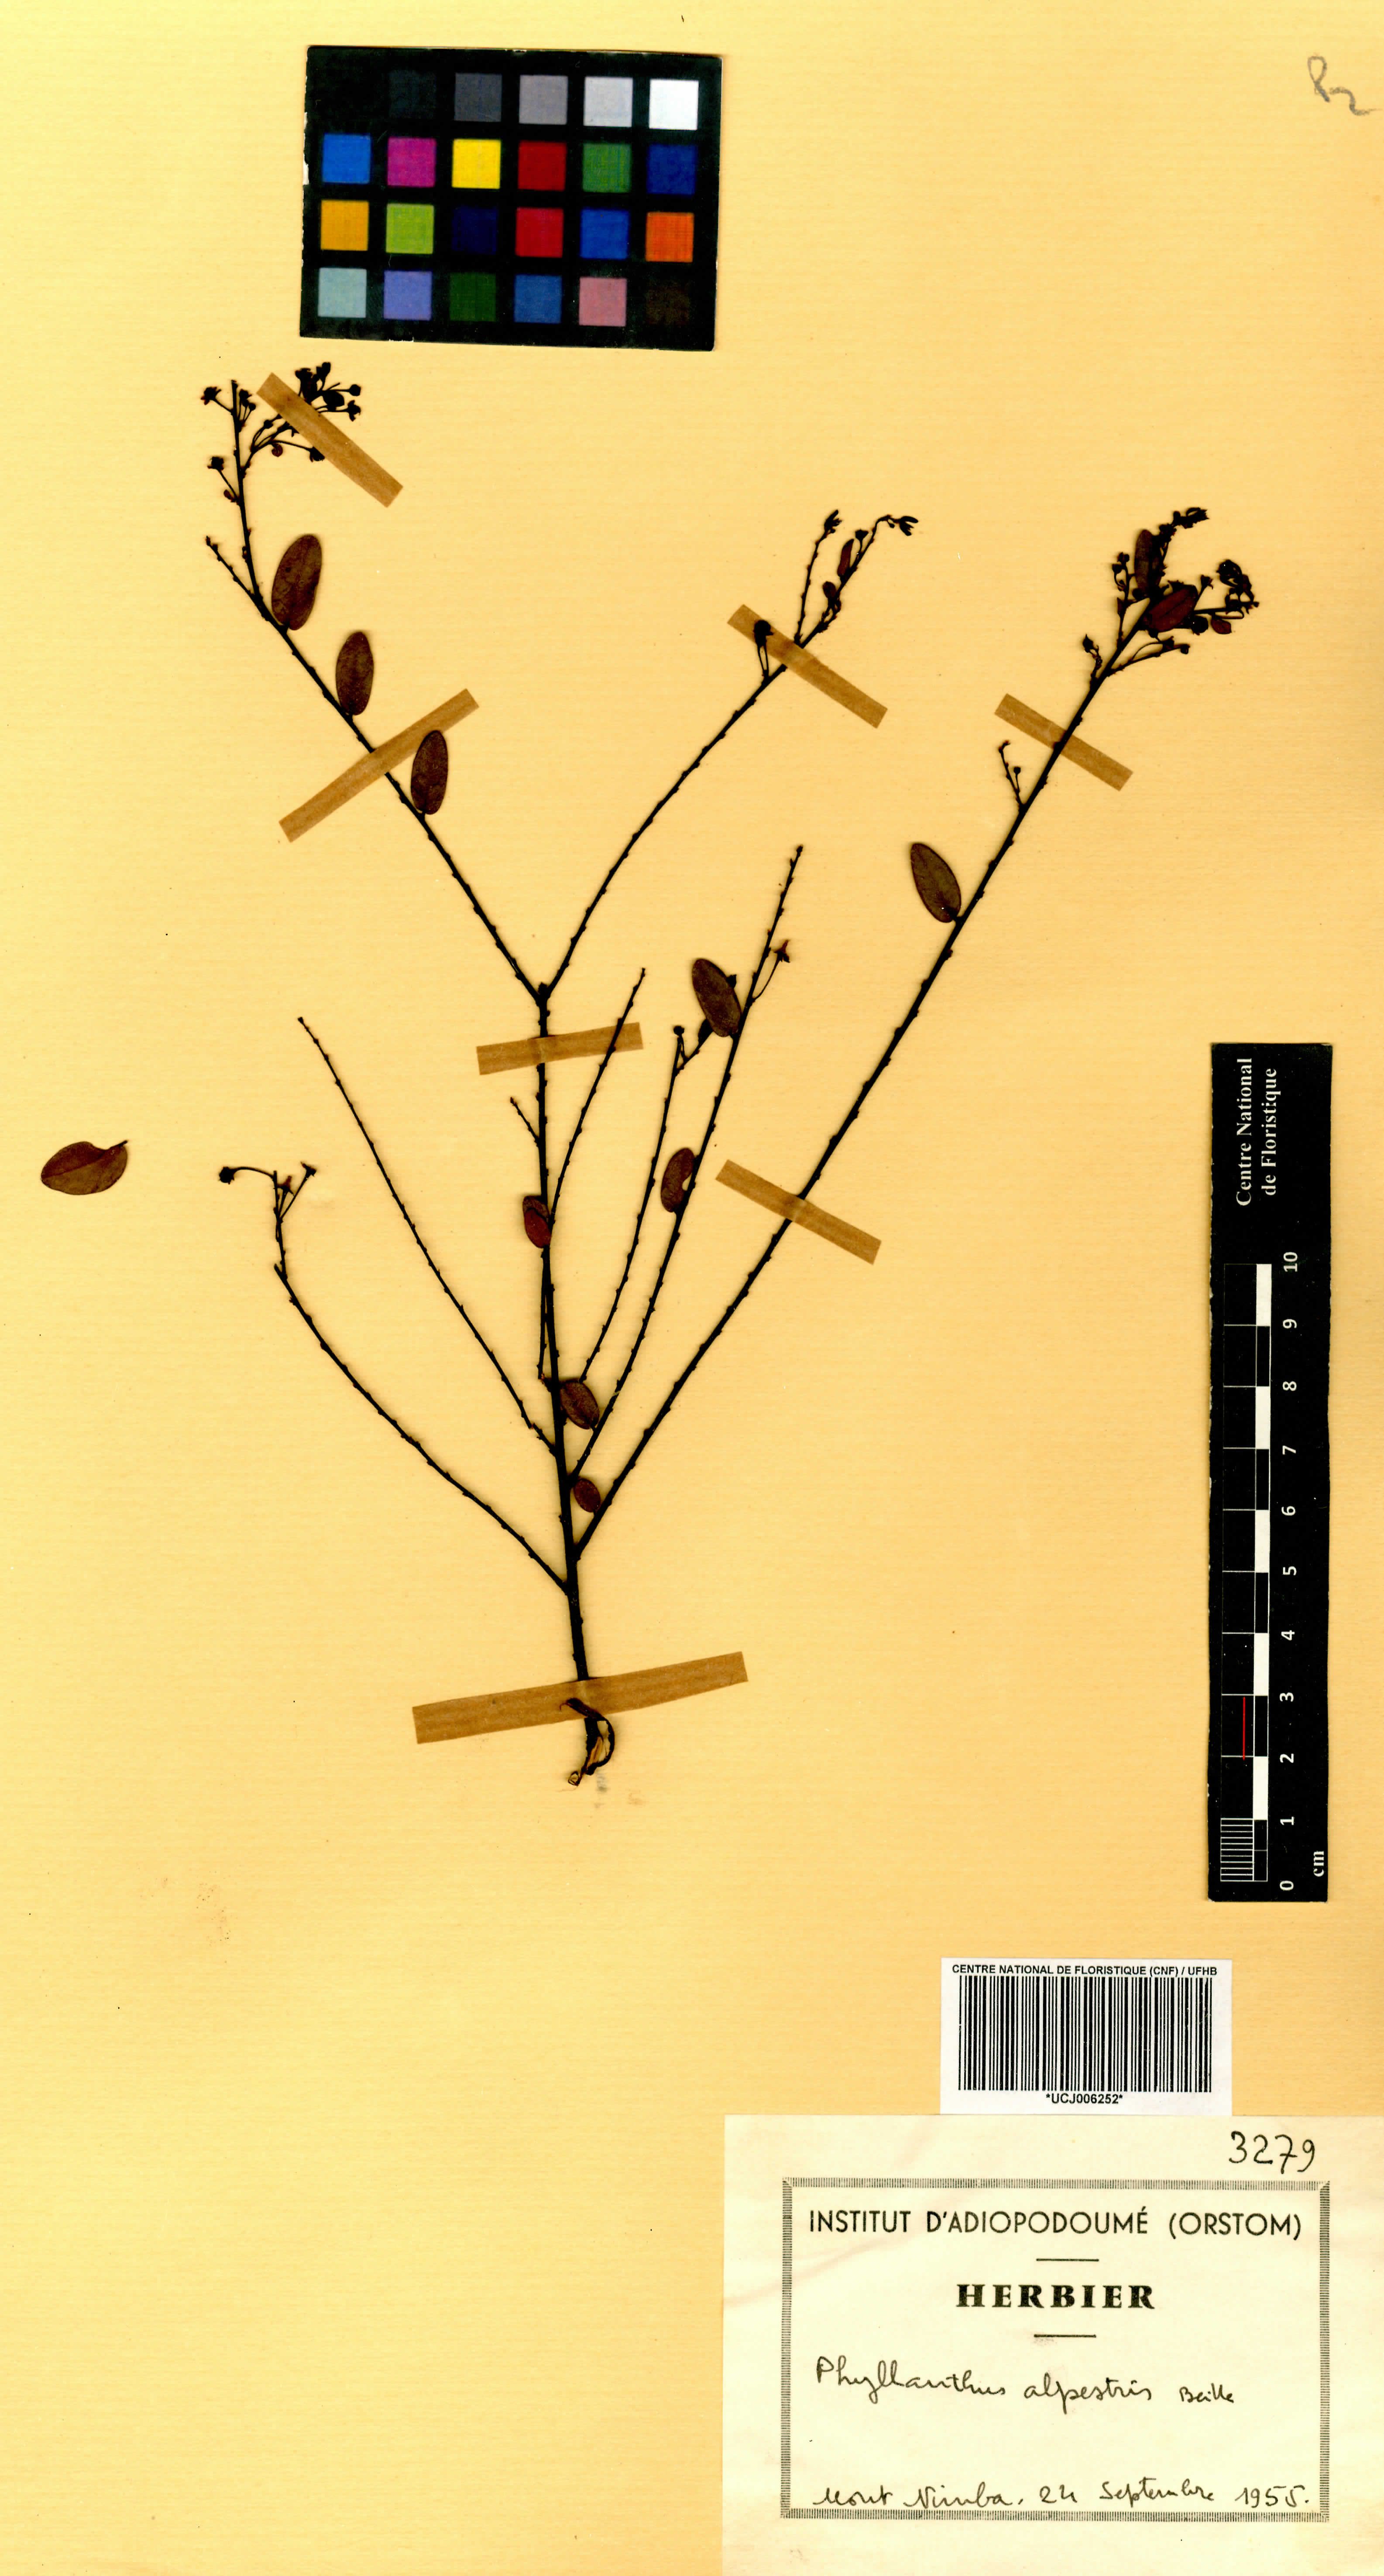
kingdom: Plantae
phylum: Tracheophyta
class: Magnoliopsida
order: Malpighiales
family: Phyllanthaceae
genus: Phyllanthus
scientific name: Phyllanthus alpestris
